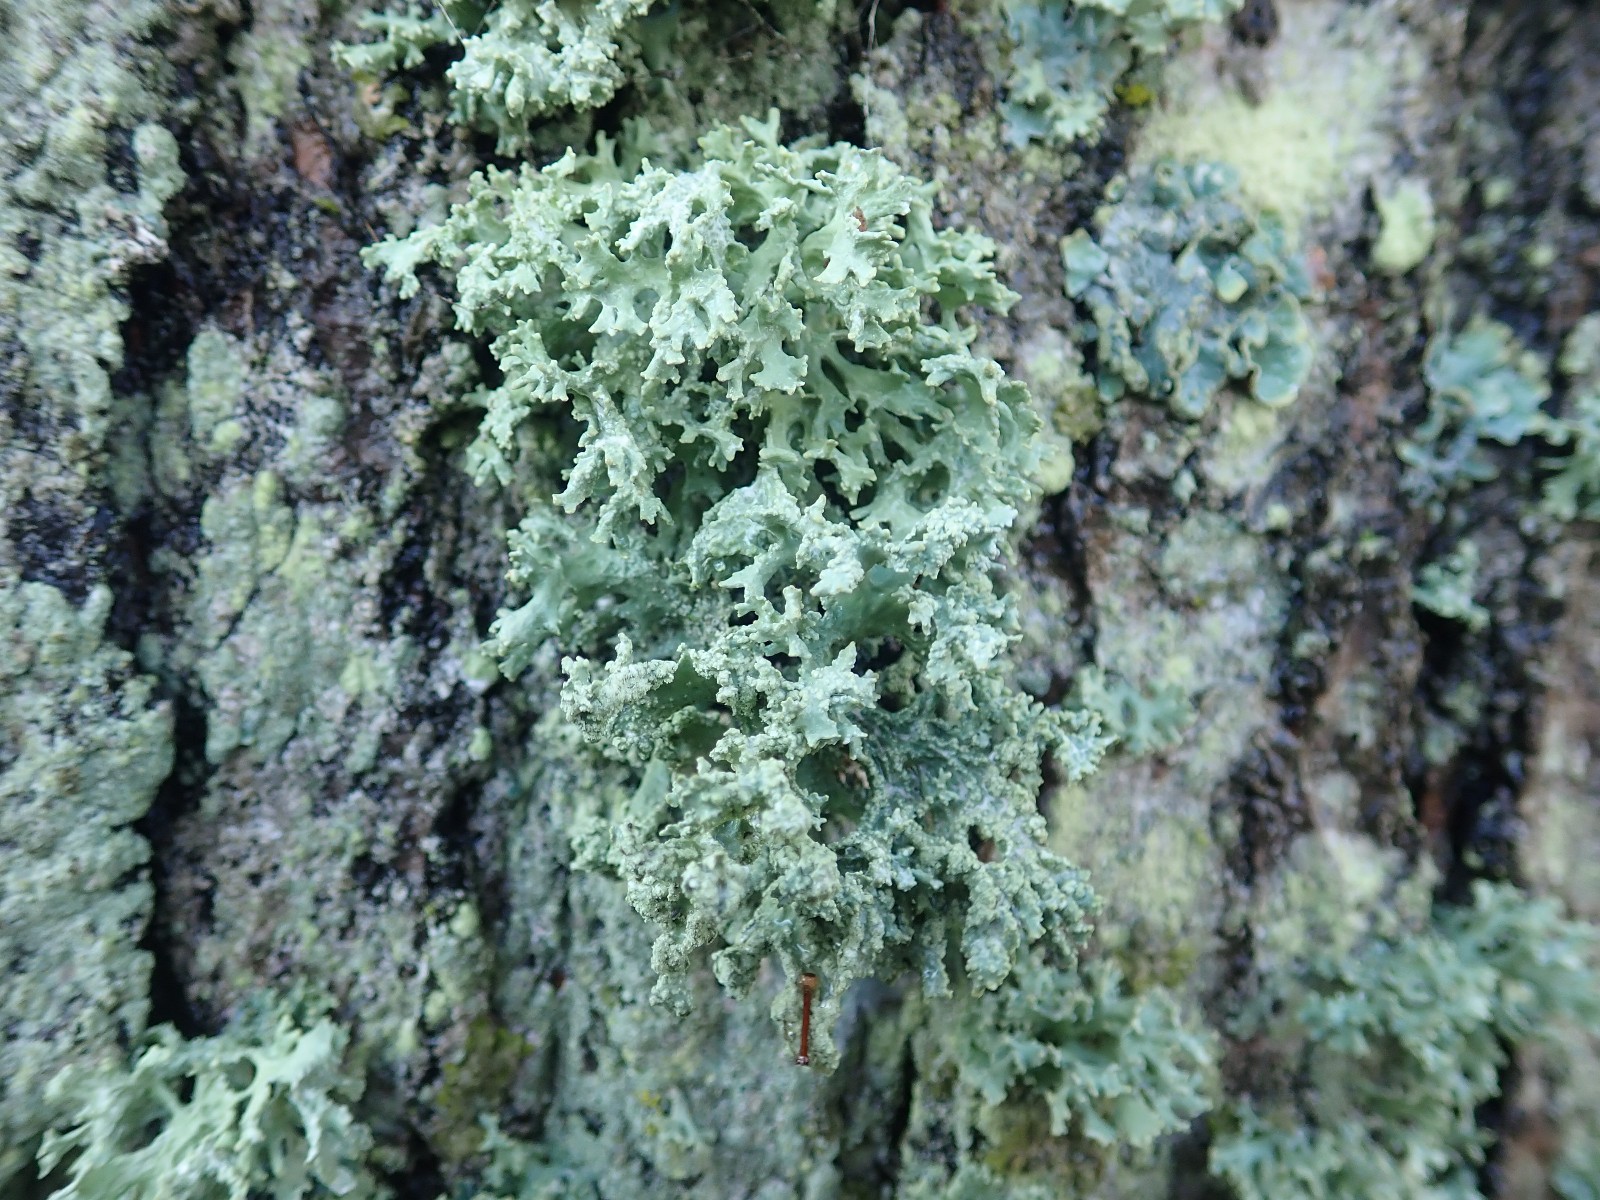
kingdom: Fungi
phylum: Ascomycota
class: Lecanoromycetes
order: Lecanorales
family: Parmeliaceae
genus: Evernia
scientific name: Evernia prunastri
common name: almindelig slåenlav
